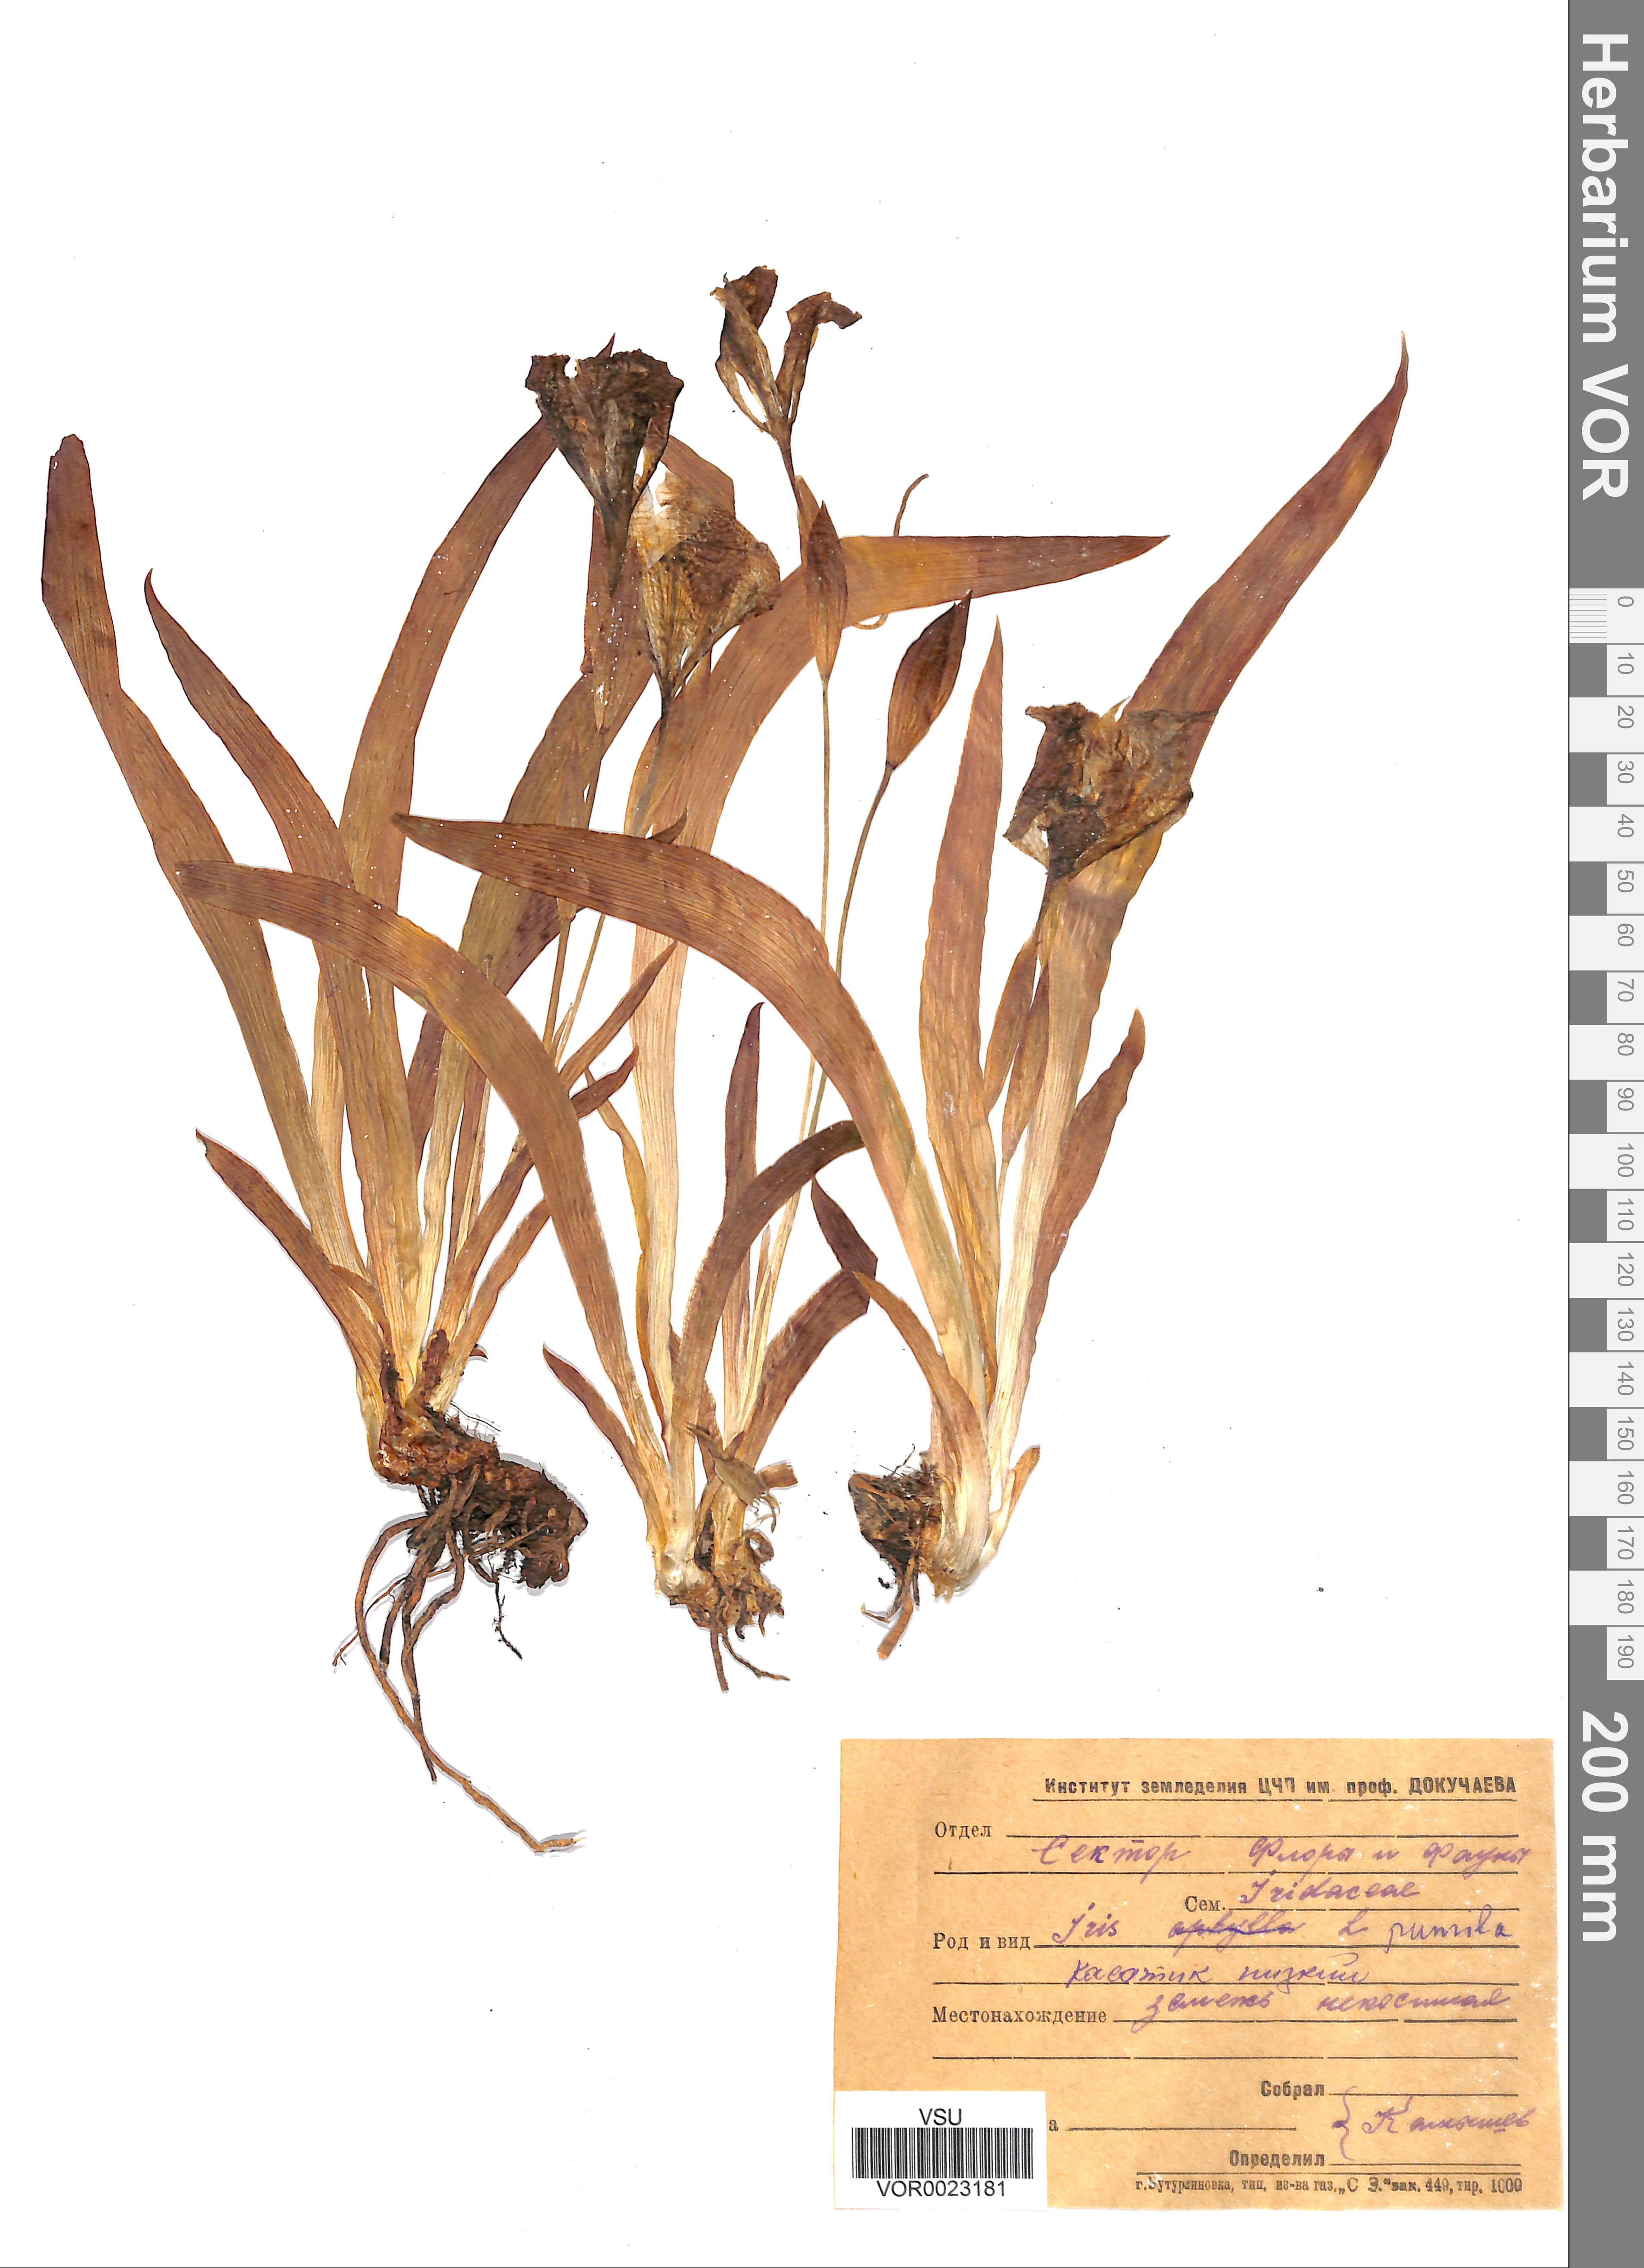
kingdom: Plantae
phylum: Tracheophyta
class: Liliopsida
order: Asparagales
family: Iridaceae
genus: Iris
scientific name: Iris aphylla
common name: Stool iris
